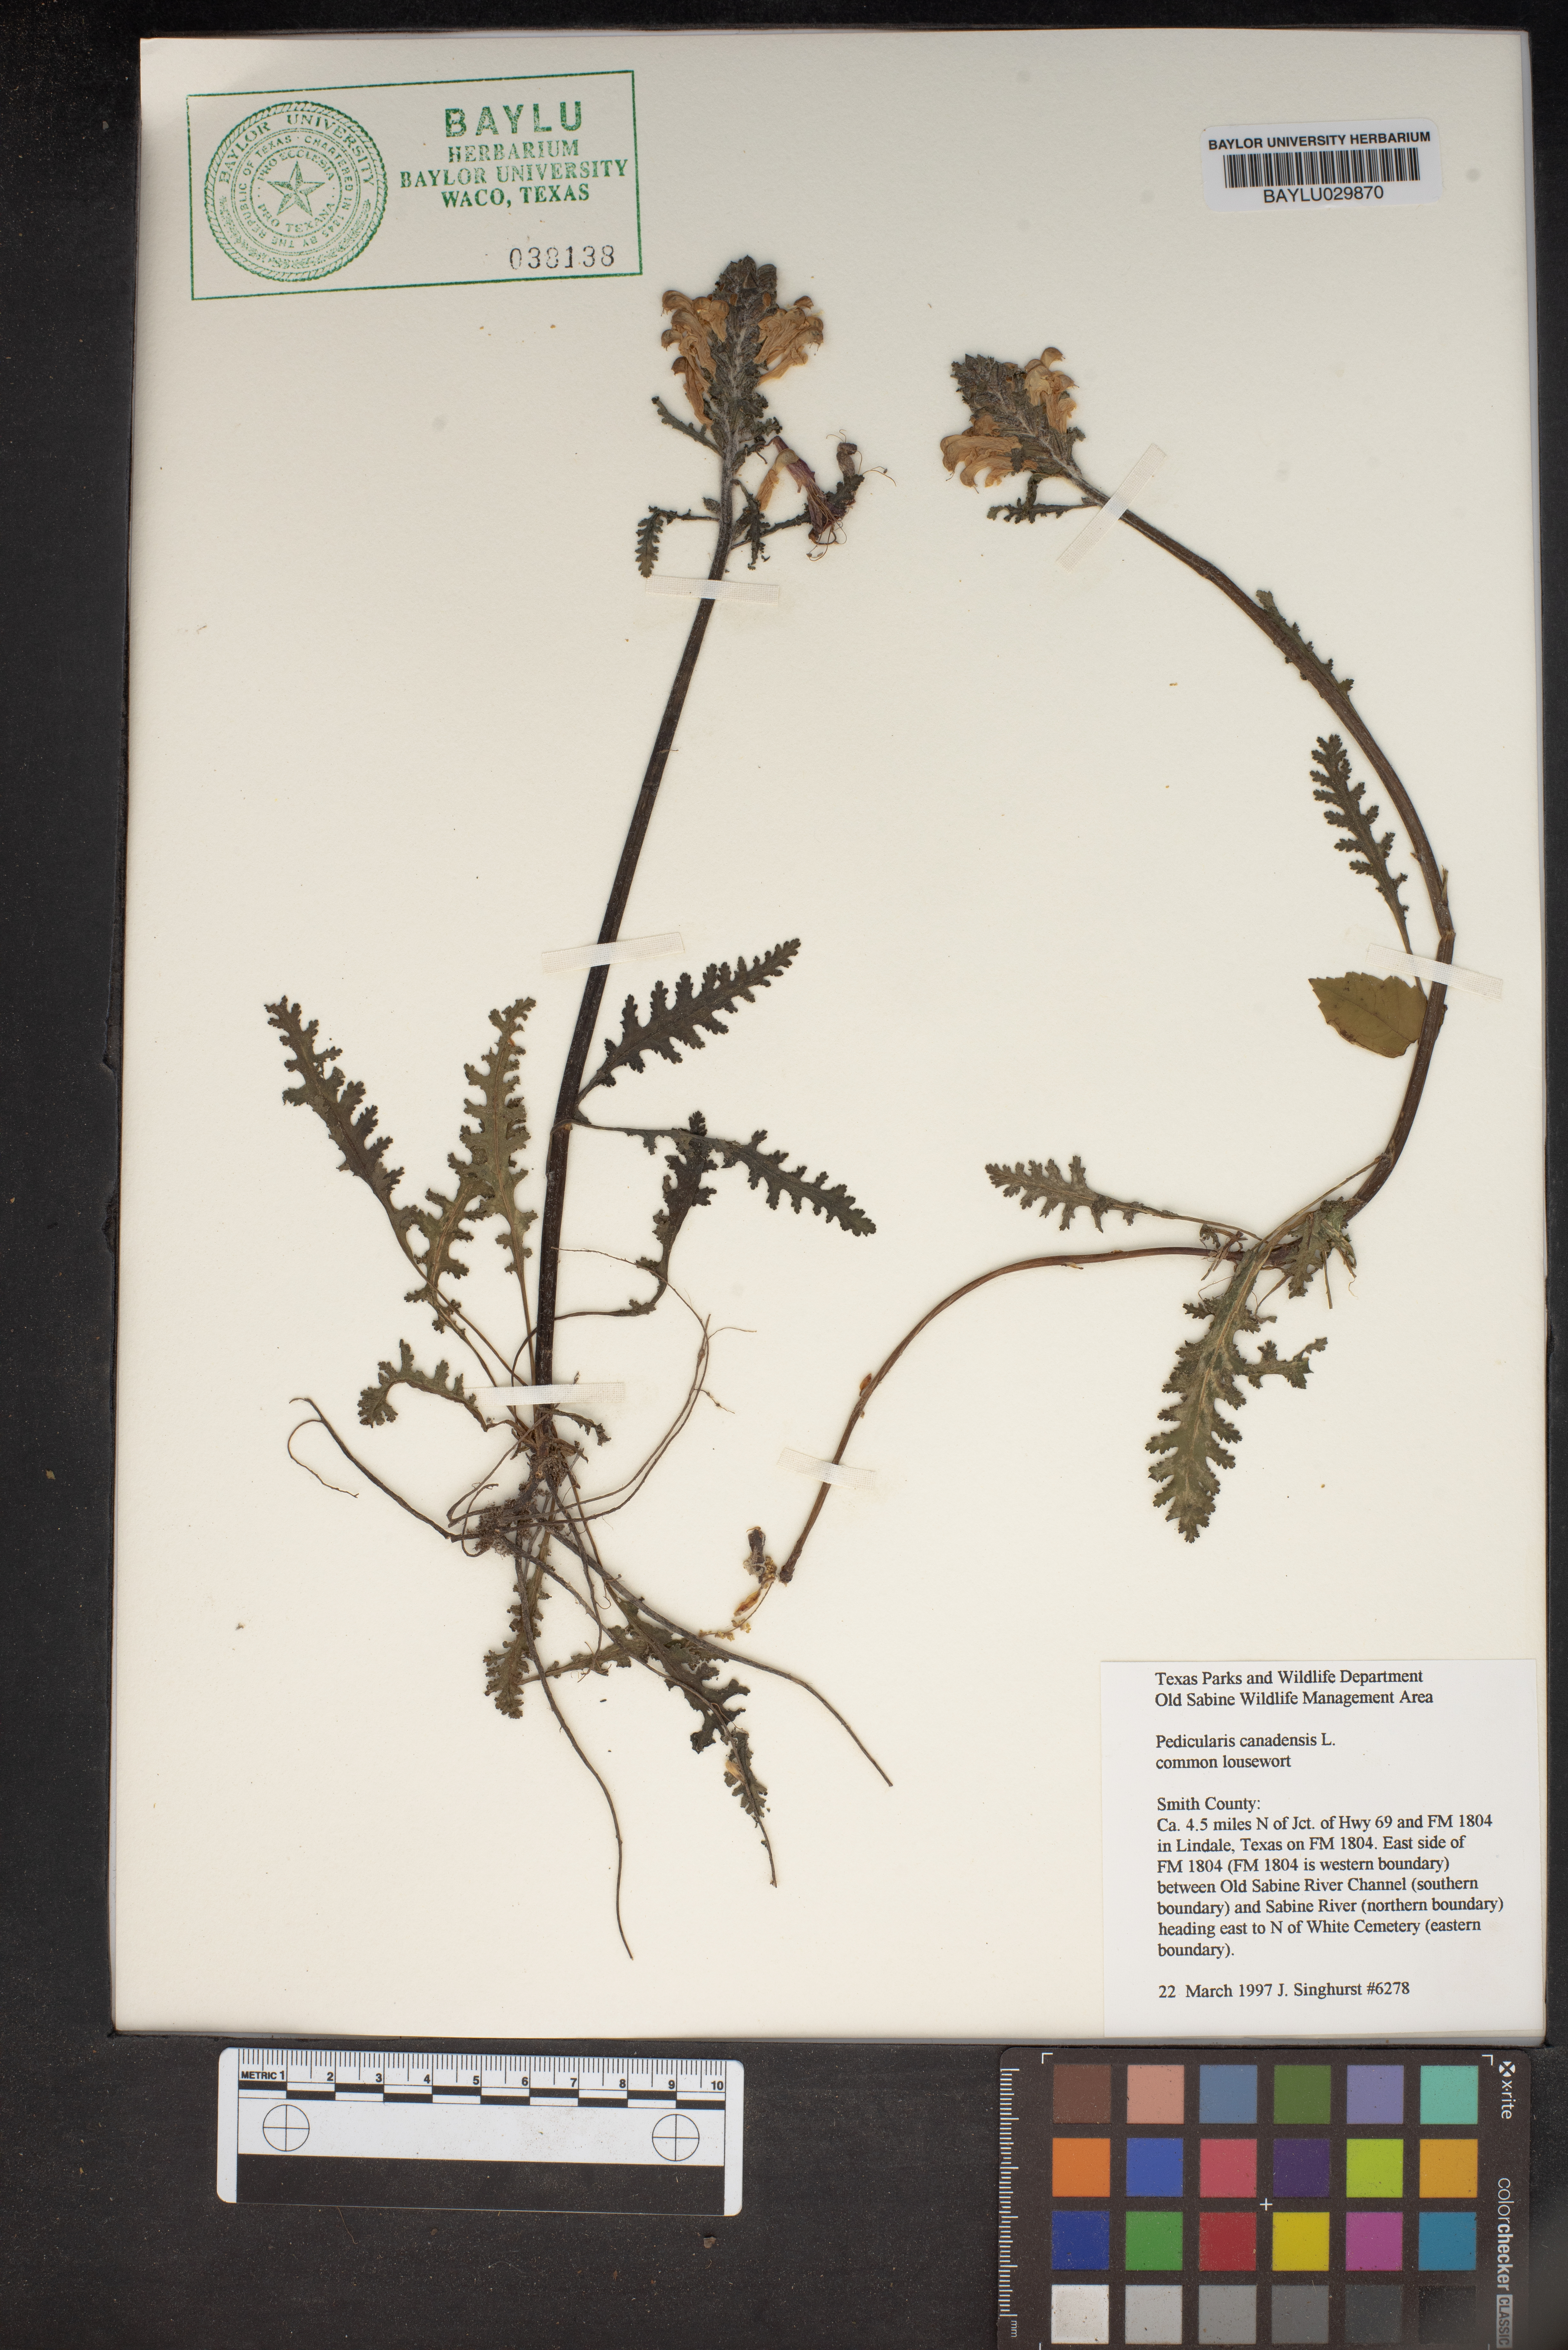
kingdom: Plantae
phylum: Tracheophyta
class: Magnoliopsida
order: Lamiales
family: Orobanchaceae
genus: Pedicularis
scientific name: Pedicularis canadensis
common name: Early lousewort
